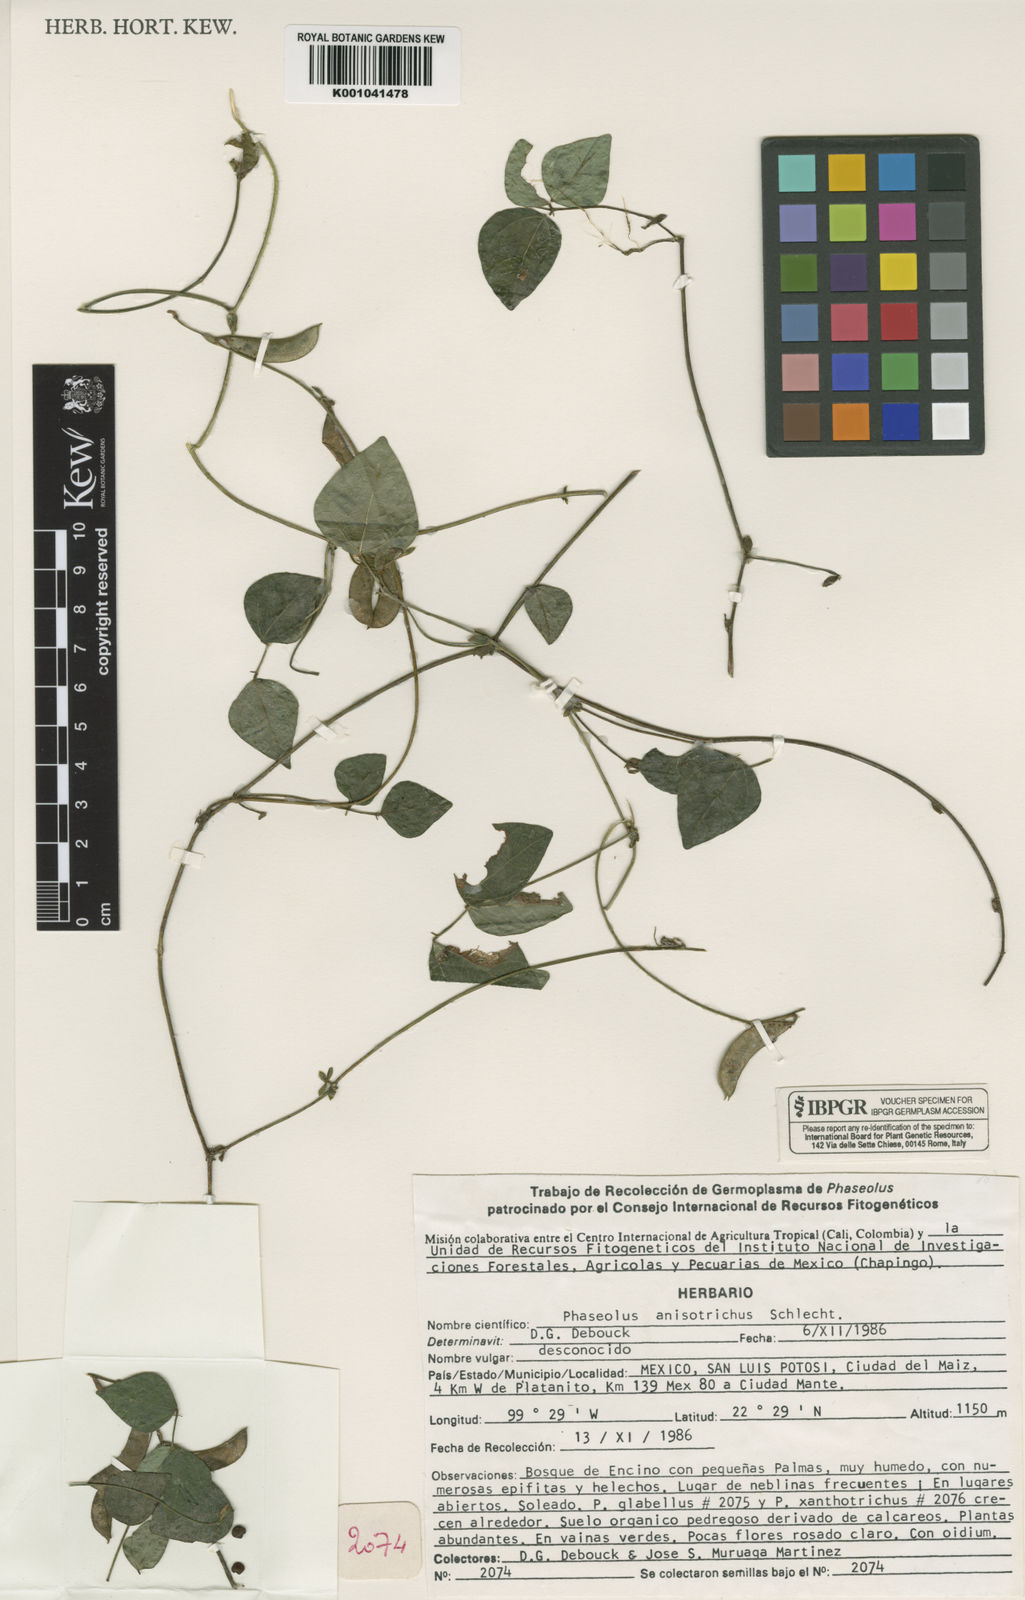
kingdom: Plantae
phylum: Tracheophyta
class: Magnoliopsida
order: Fabales
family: Fabaceae
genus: Phaseolus
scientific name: Phaseolus
